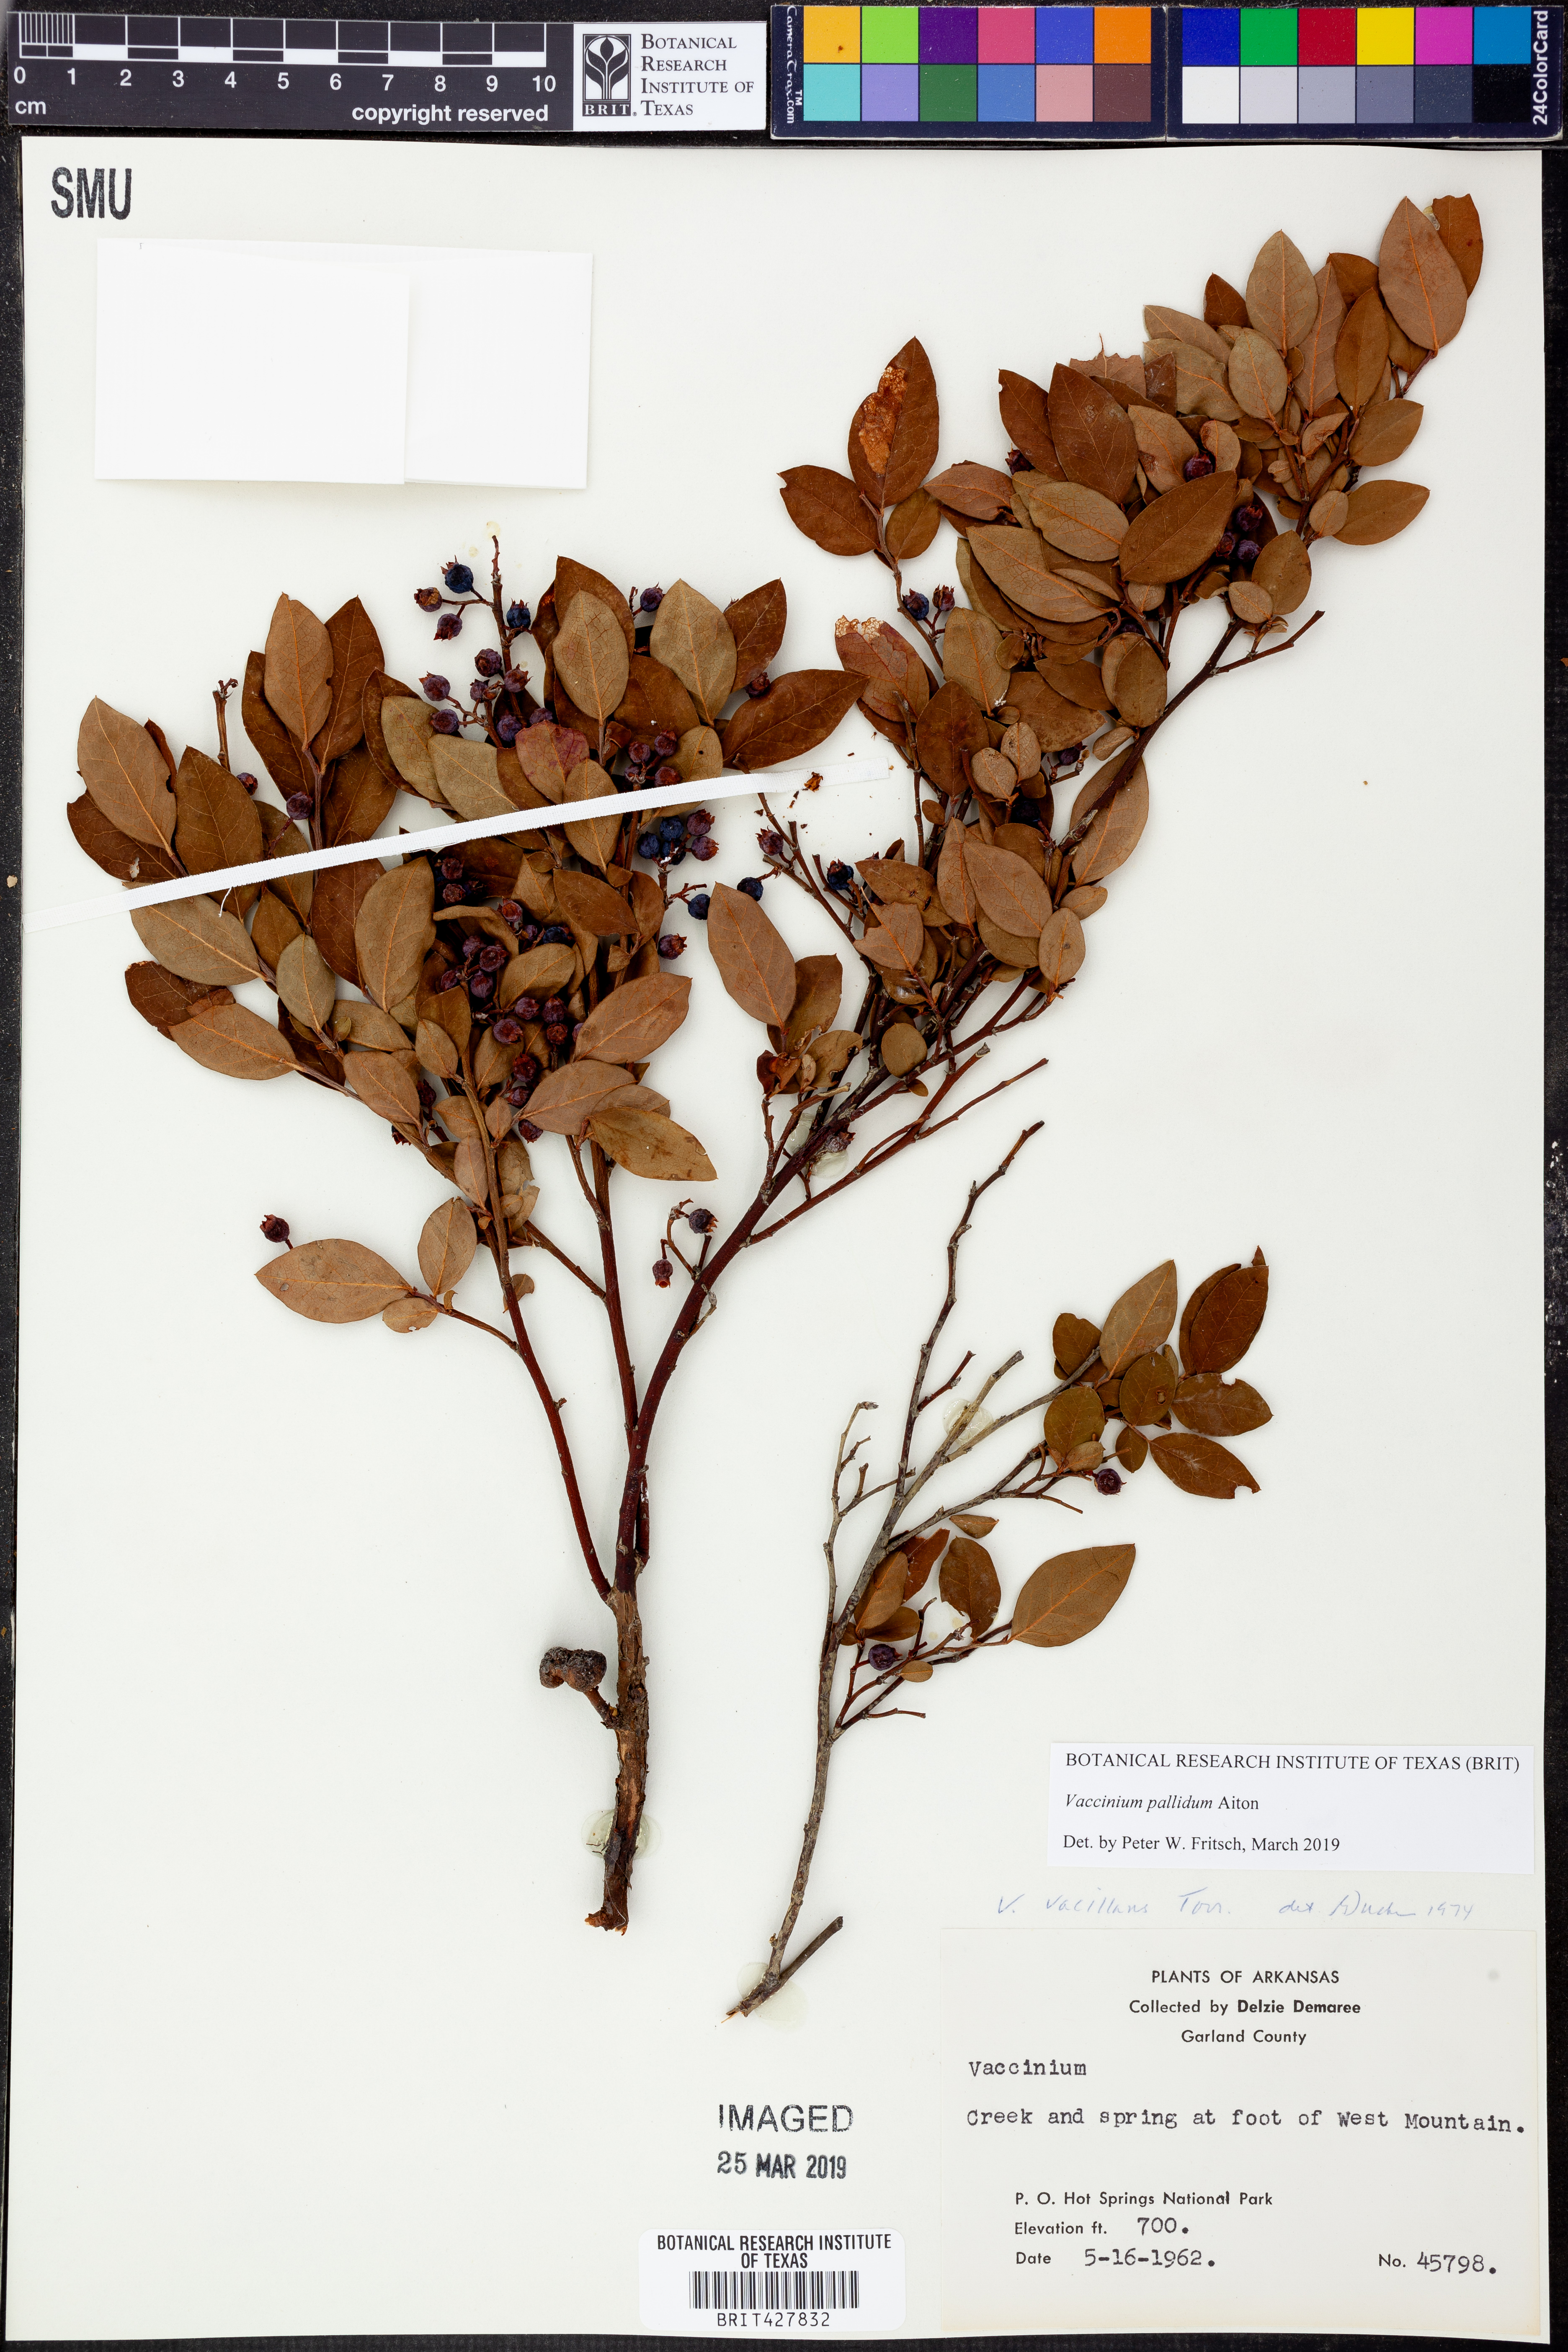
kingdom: Plantae
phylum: Tracheophyta
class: Magnoliopsida
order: Ericales
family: Ericaceae
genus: Vaccinium
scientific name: Vaccinium pallidum
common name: Blue ridge blueberry
